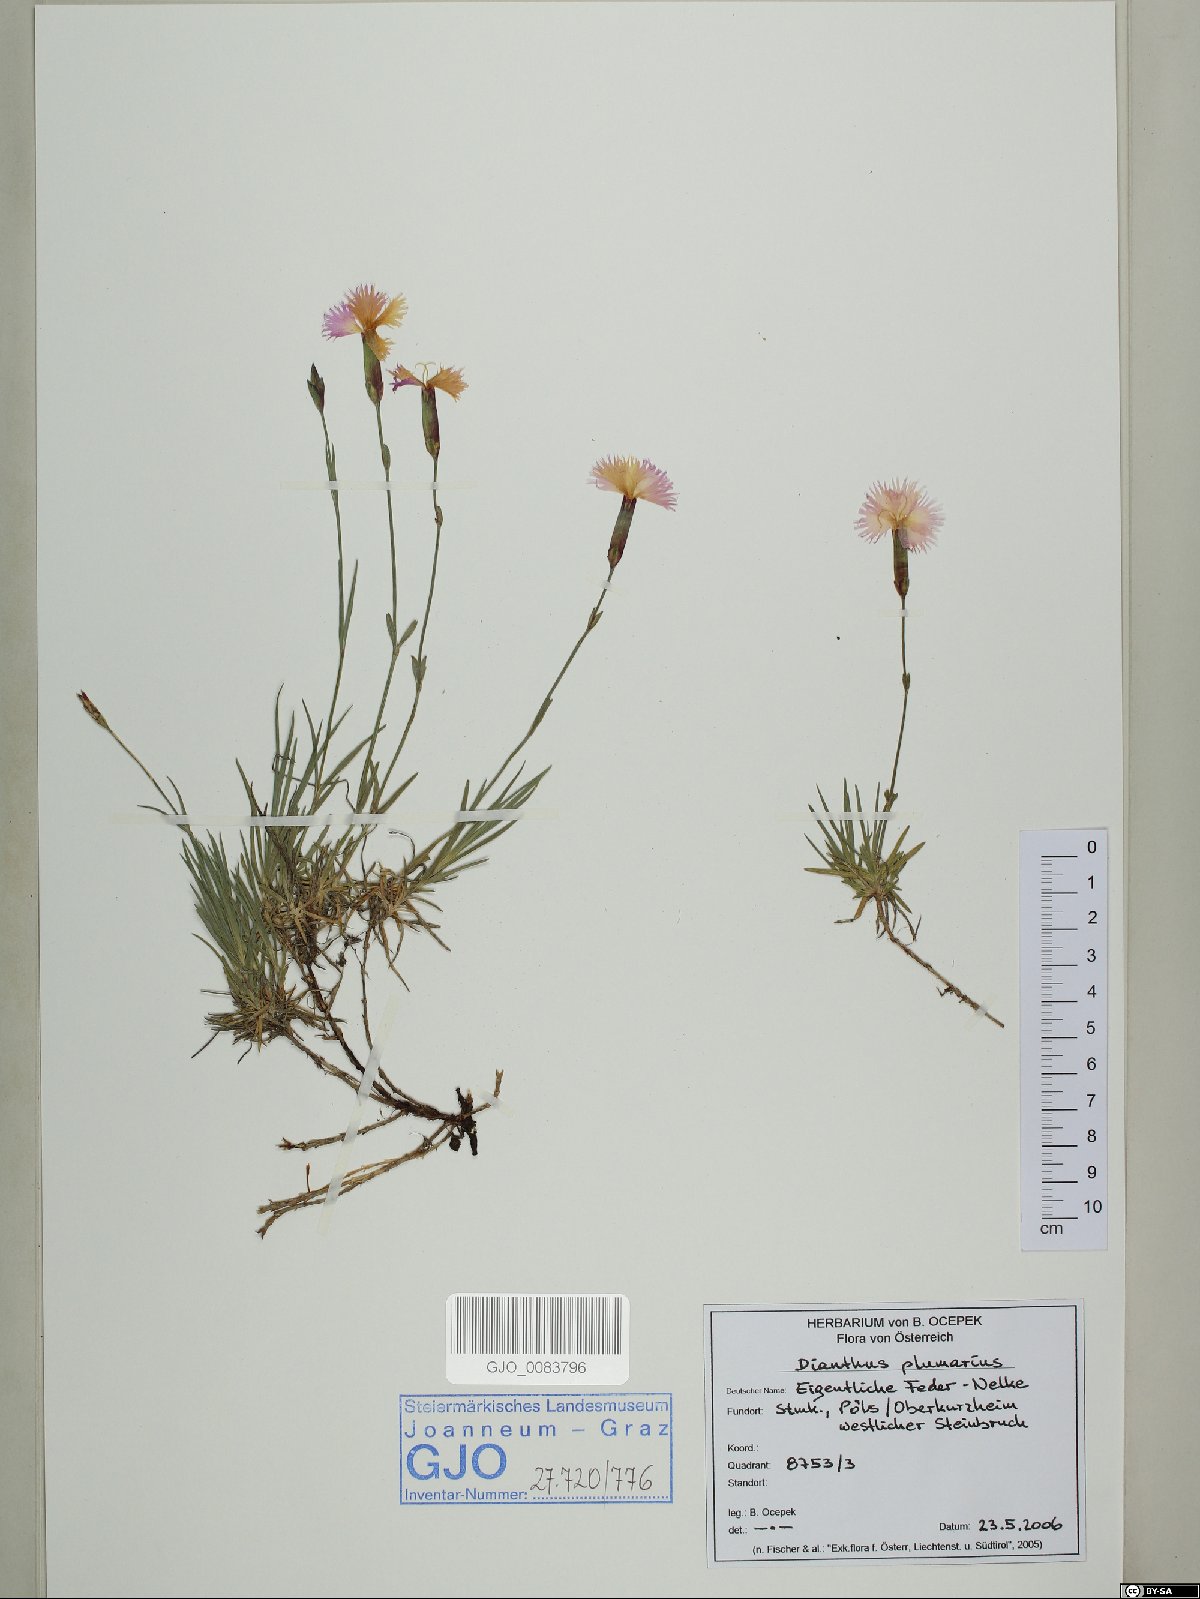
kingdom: Plantae
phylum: Tracheophyta
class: Magnoliopsida
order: Caryophyllales
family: Caryophyllaceae
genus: Dianthus
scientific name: Dianthus plumarius
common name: Pink
